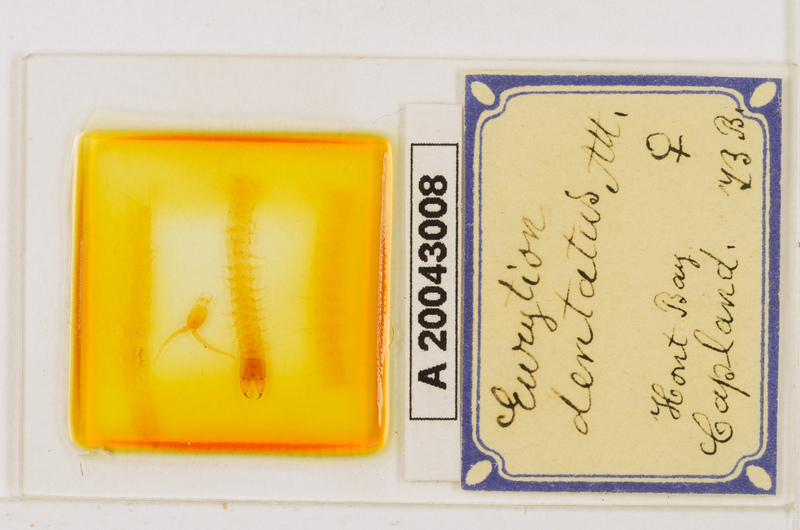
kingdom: Animalia
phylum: Arthropoda
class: Chilopoda
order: Geophilomorpha
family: Geophilidae
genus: Eurytion
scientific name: Eurytion dentatus
